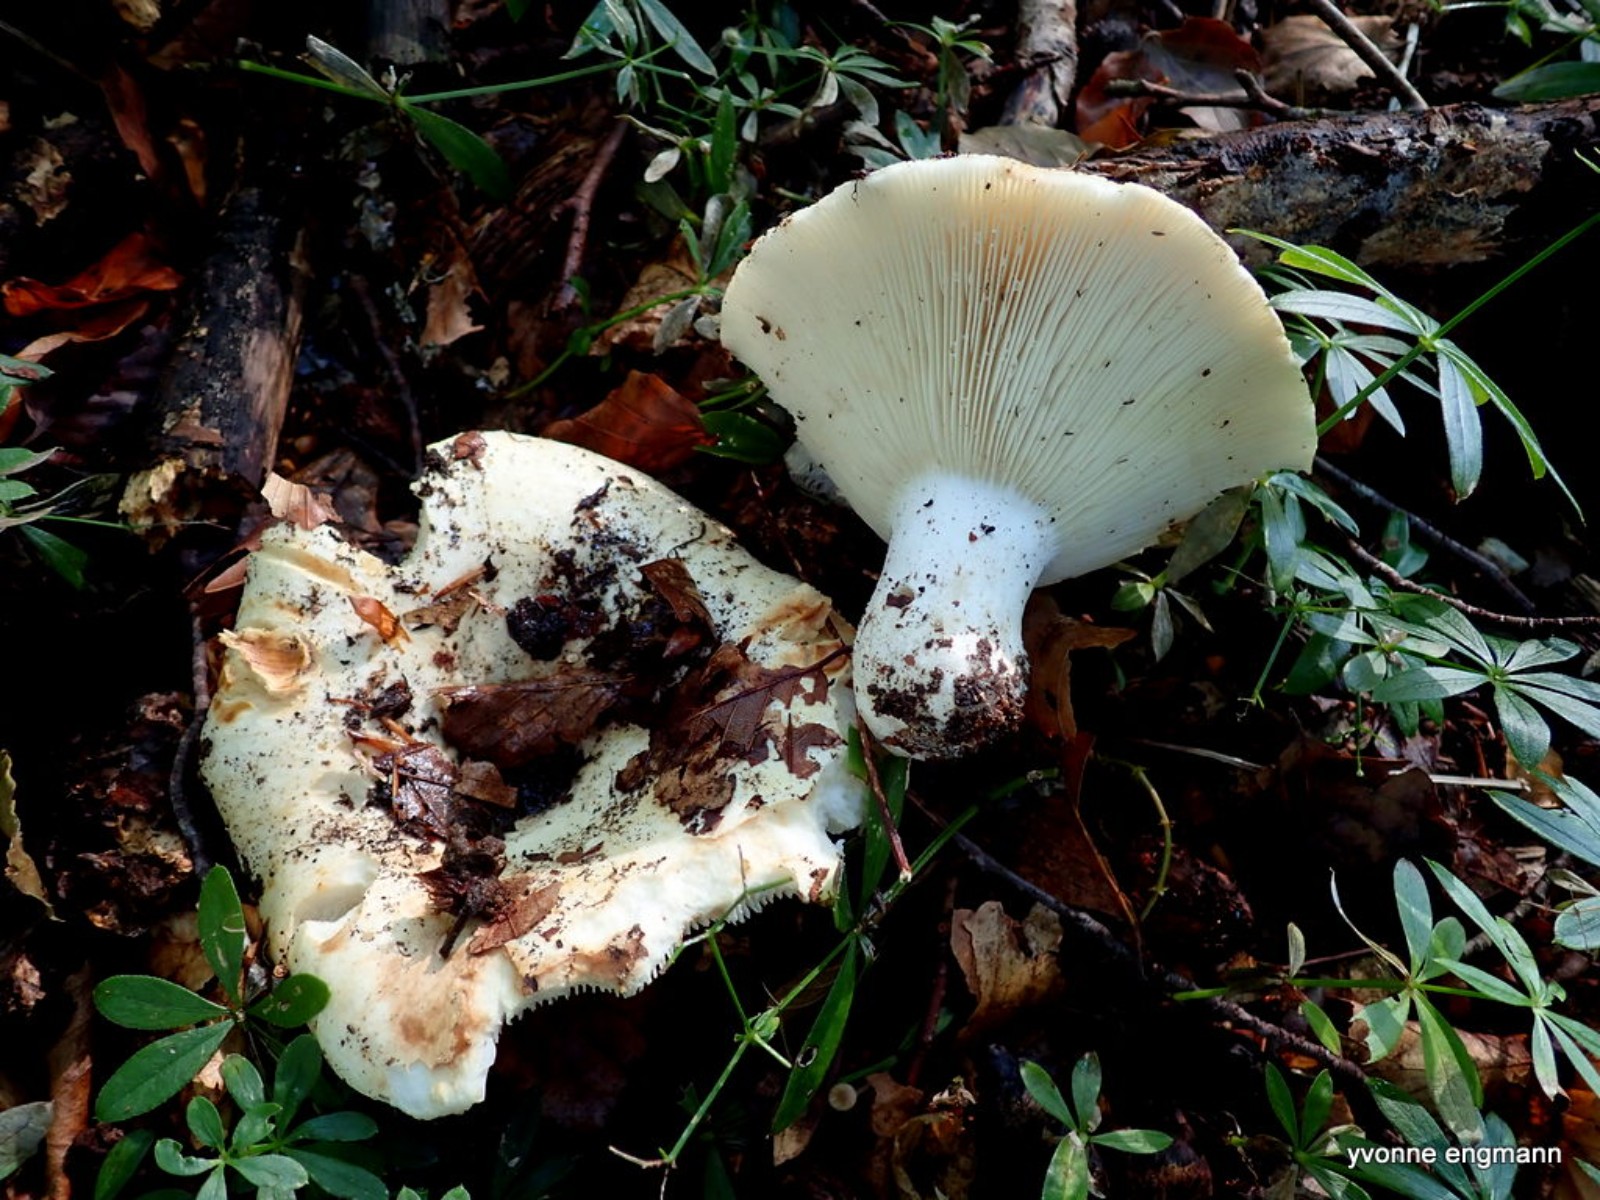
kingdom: Fungi
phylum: Basidiomycota
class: Agaricomycetes
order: Russulales
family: Russulaceae
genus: Russula
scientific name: Russula chloroides
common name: grønhalset tragt-skørhat
